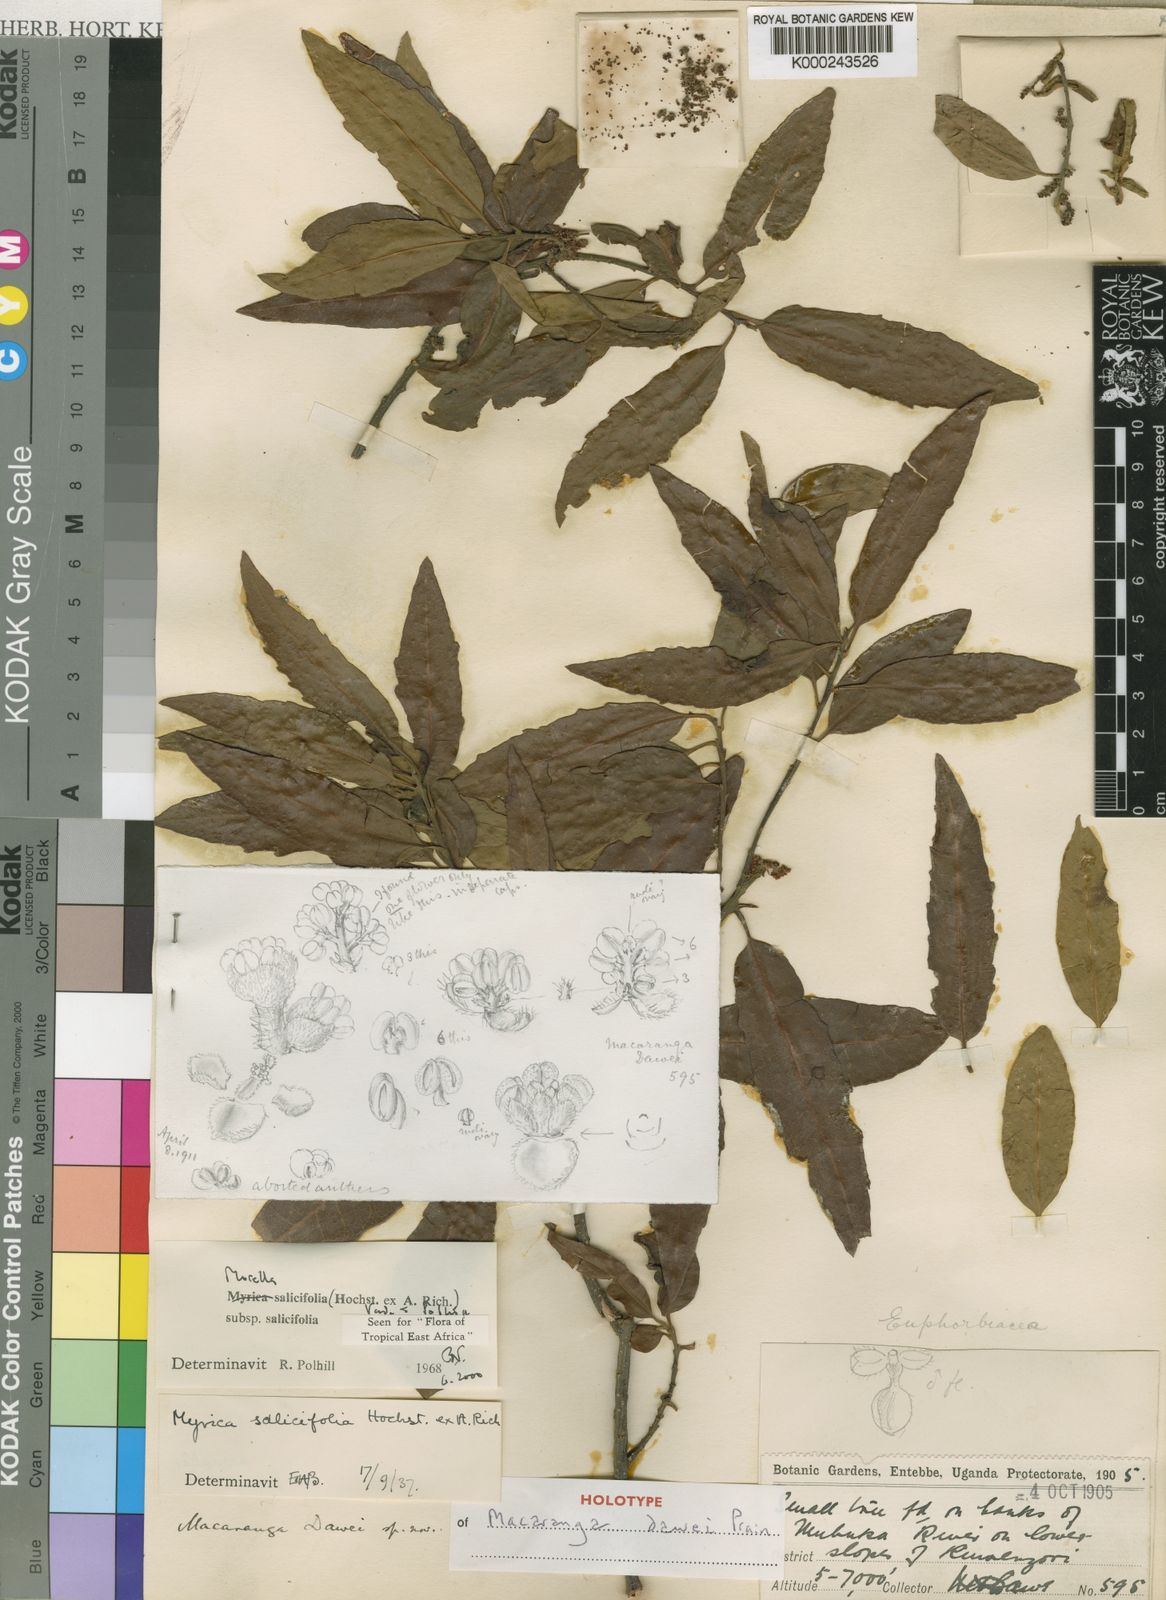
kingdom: Plantae
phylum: Tracheophyta
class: Magnoliopsida
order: Fagales
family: Myricaceae
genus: Morella
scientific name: Morella salicifolia
